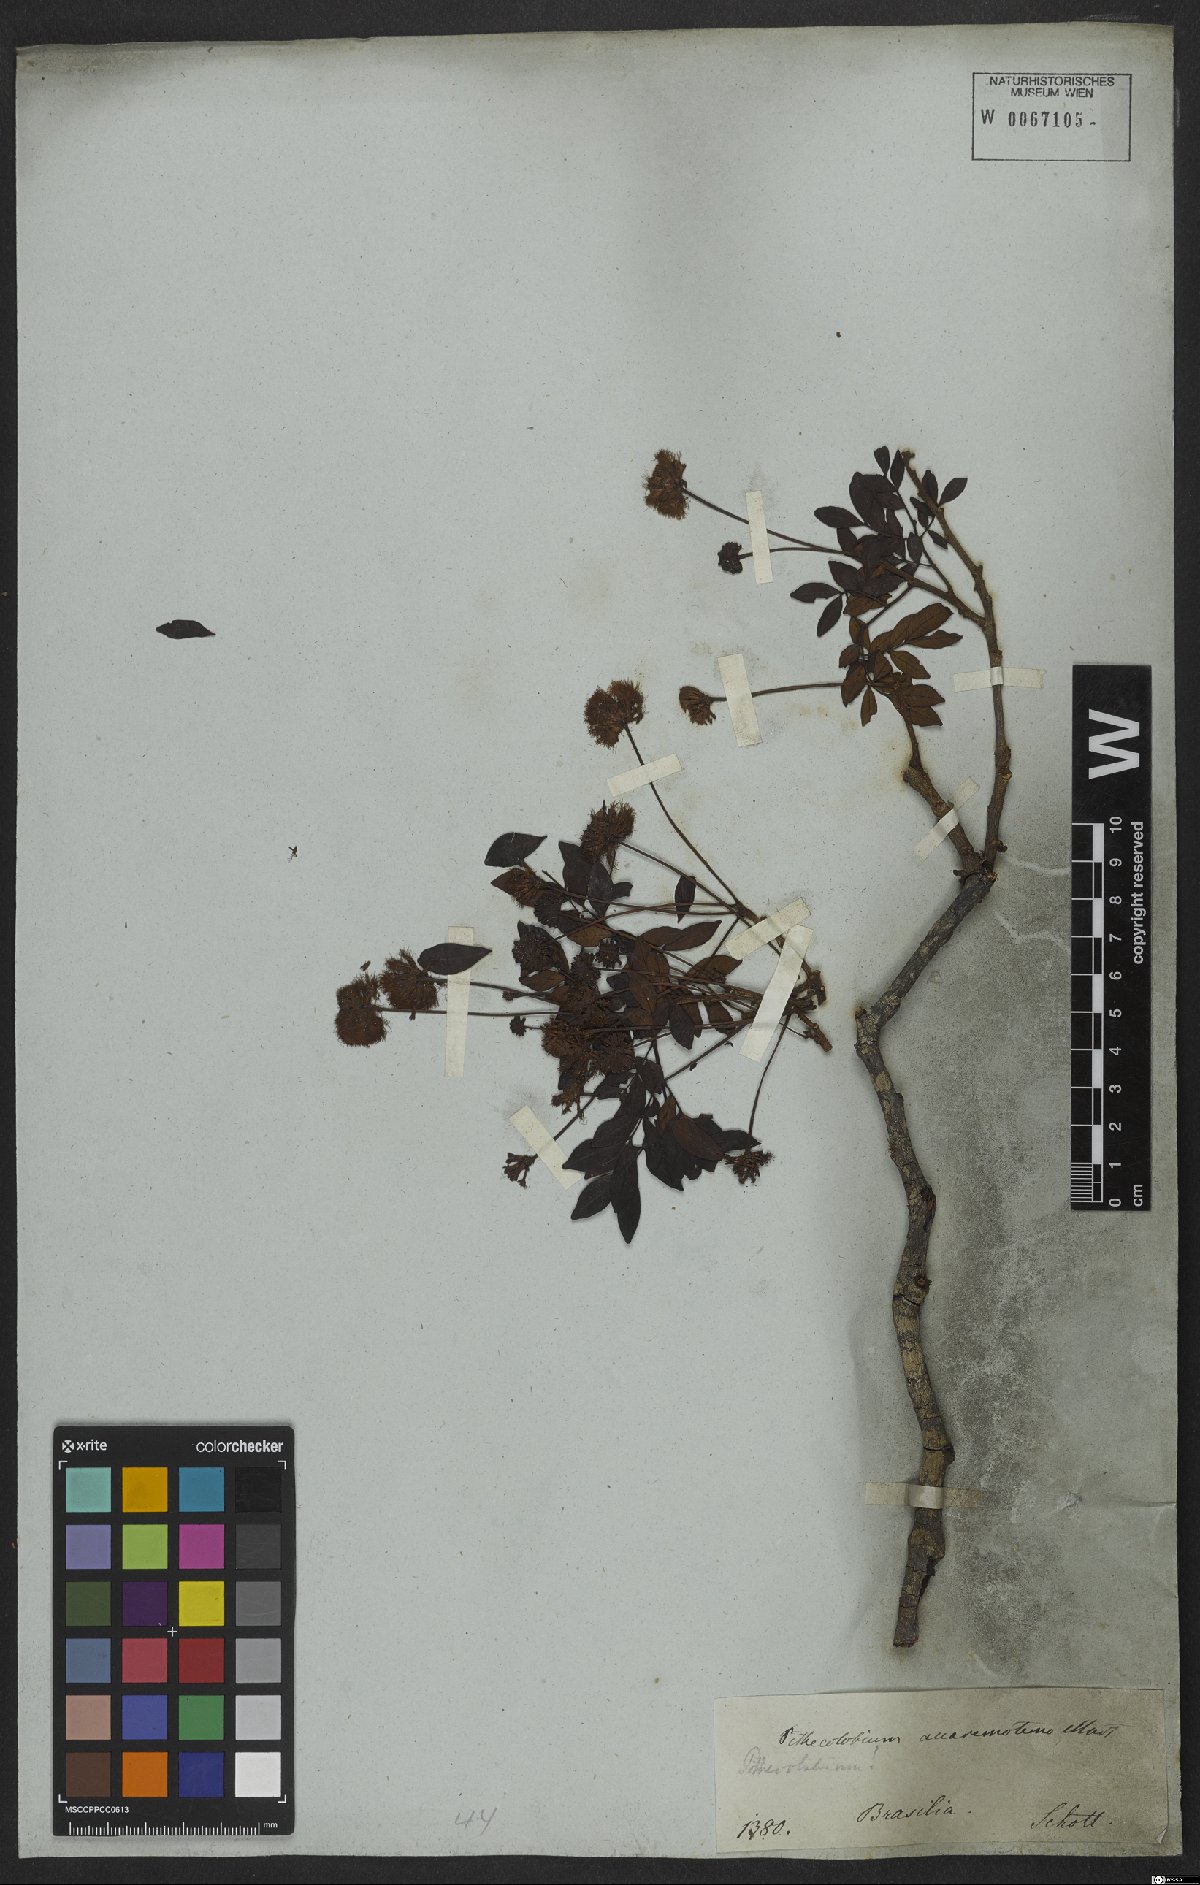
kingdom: Plantae
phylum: Tracheophyta
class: Magnoliopsida
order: Fabales
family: Fabaceae
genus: Abarema
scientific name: Abarema cochliacarpos
